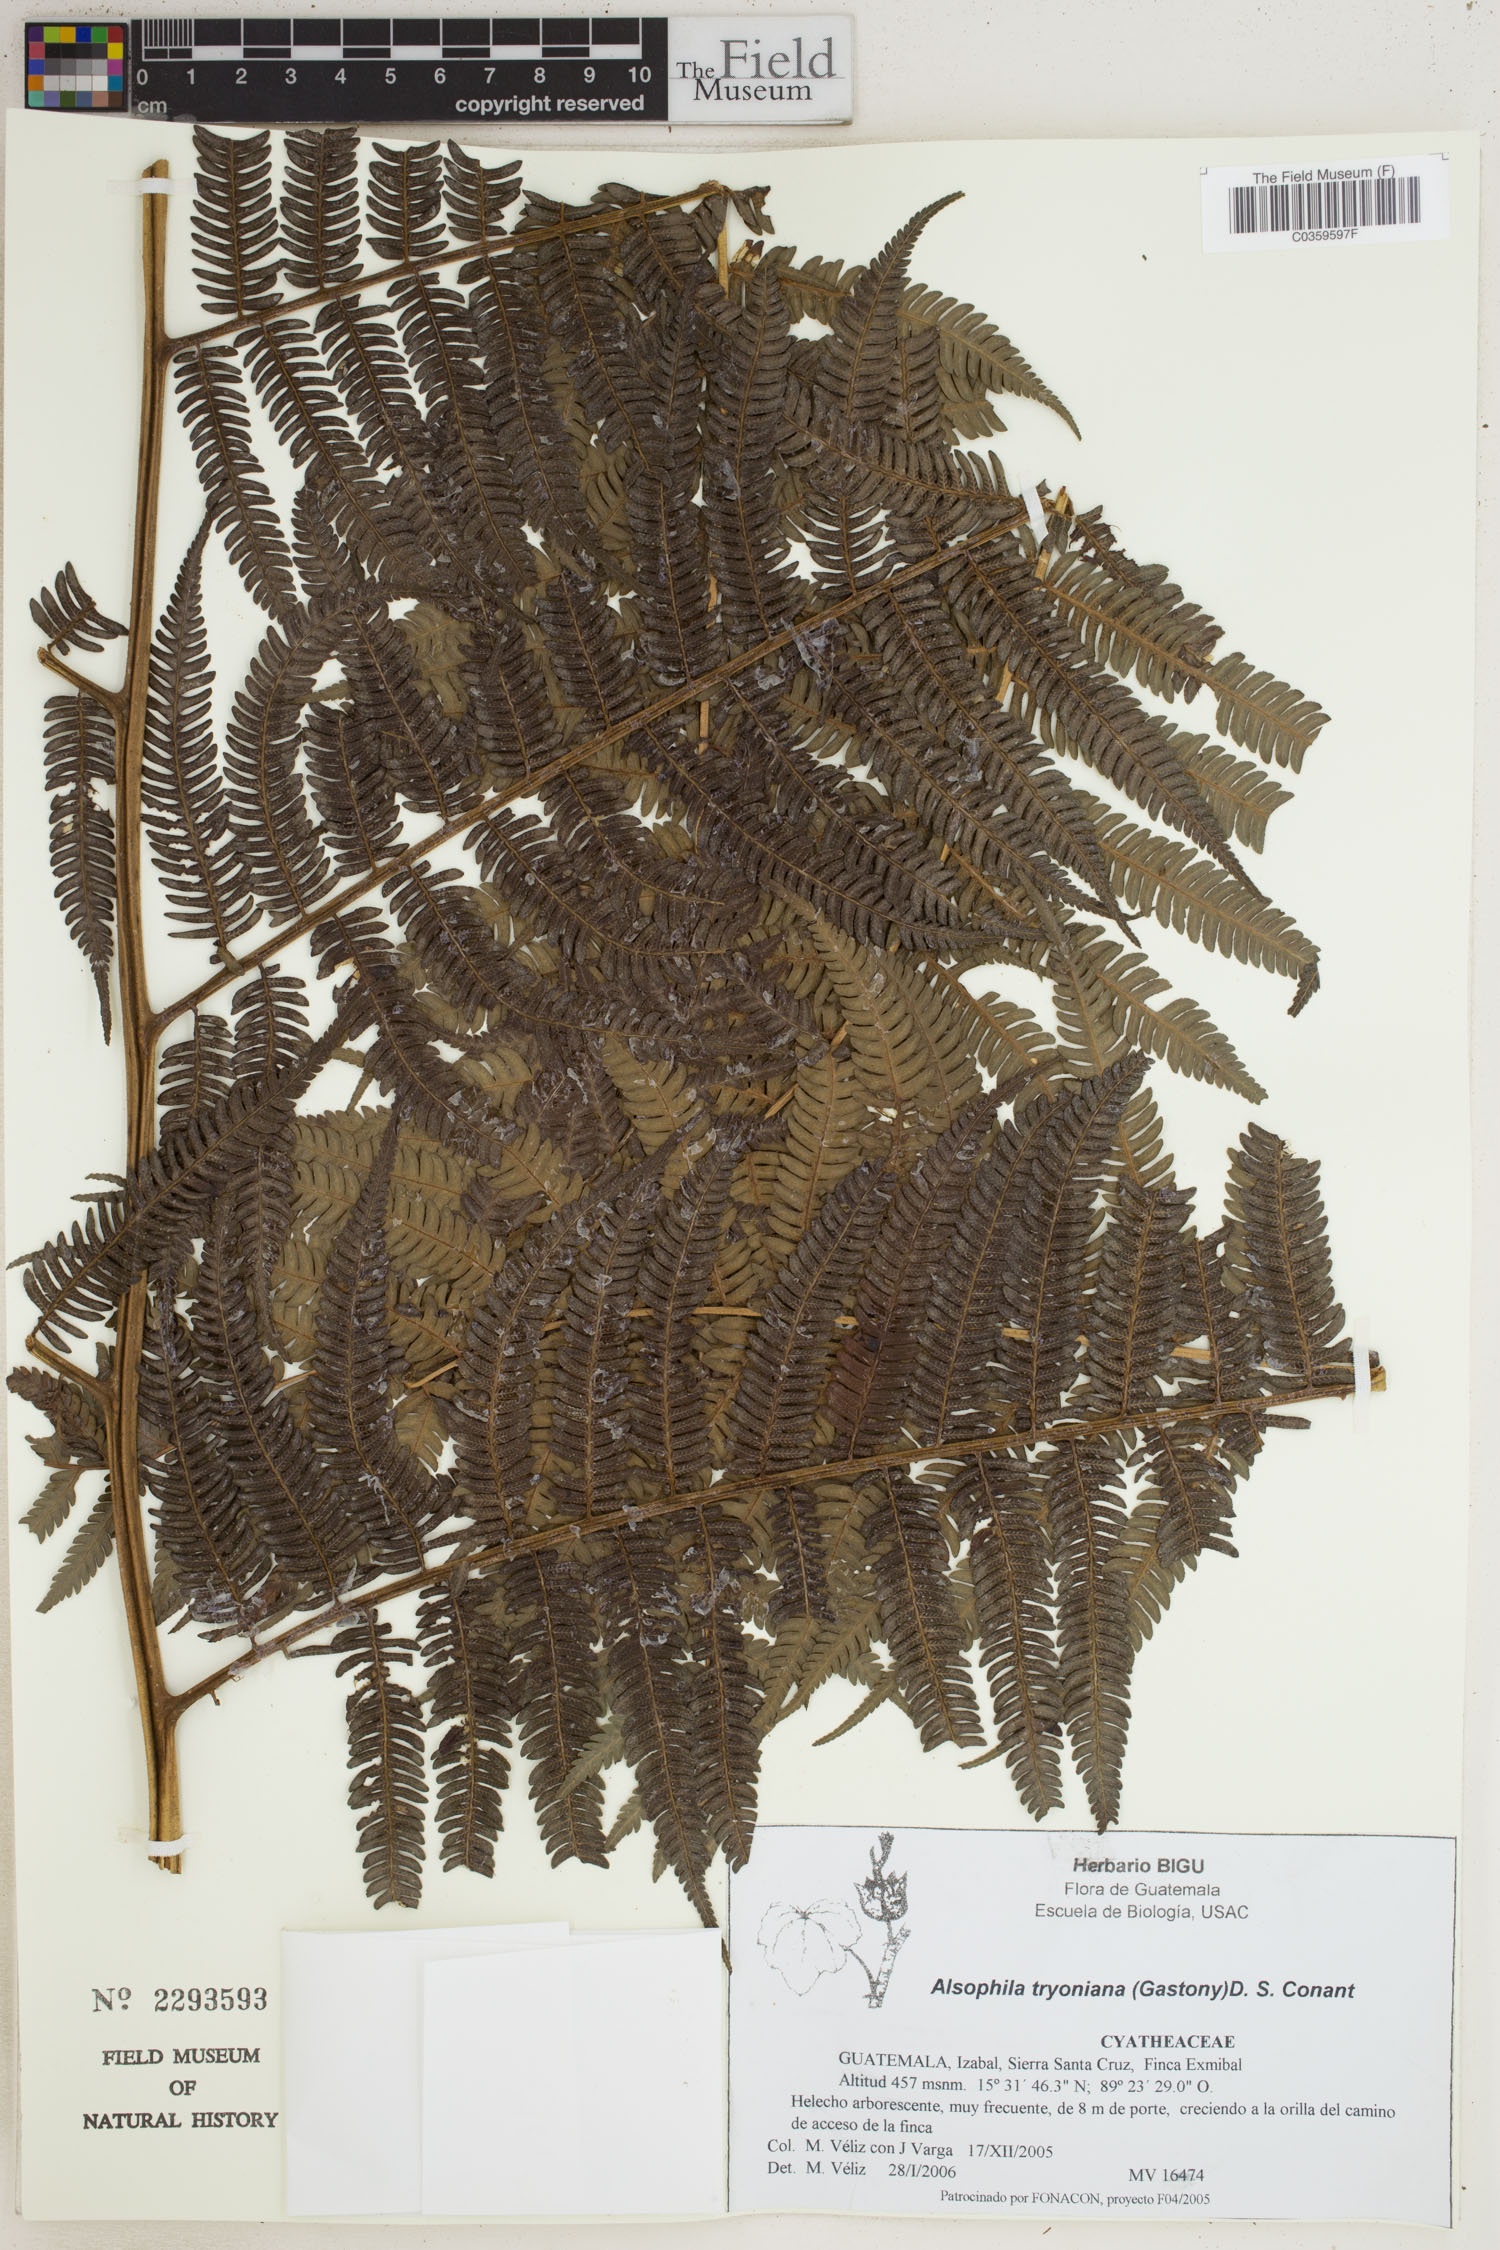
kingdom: Plantae
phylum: Tracheophyta
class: Polypodiopsida
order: Cyatheales
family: Cyatheaceae
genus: Alsophila
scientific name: Alsophila tryoniana
